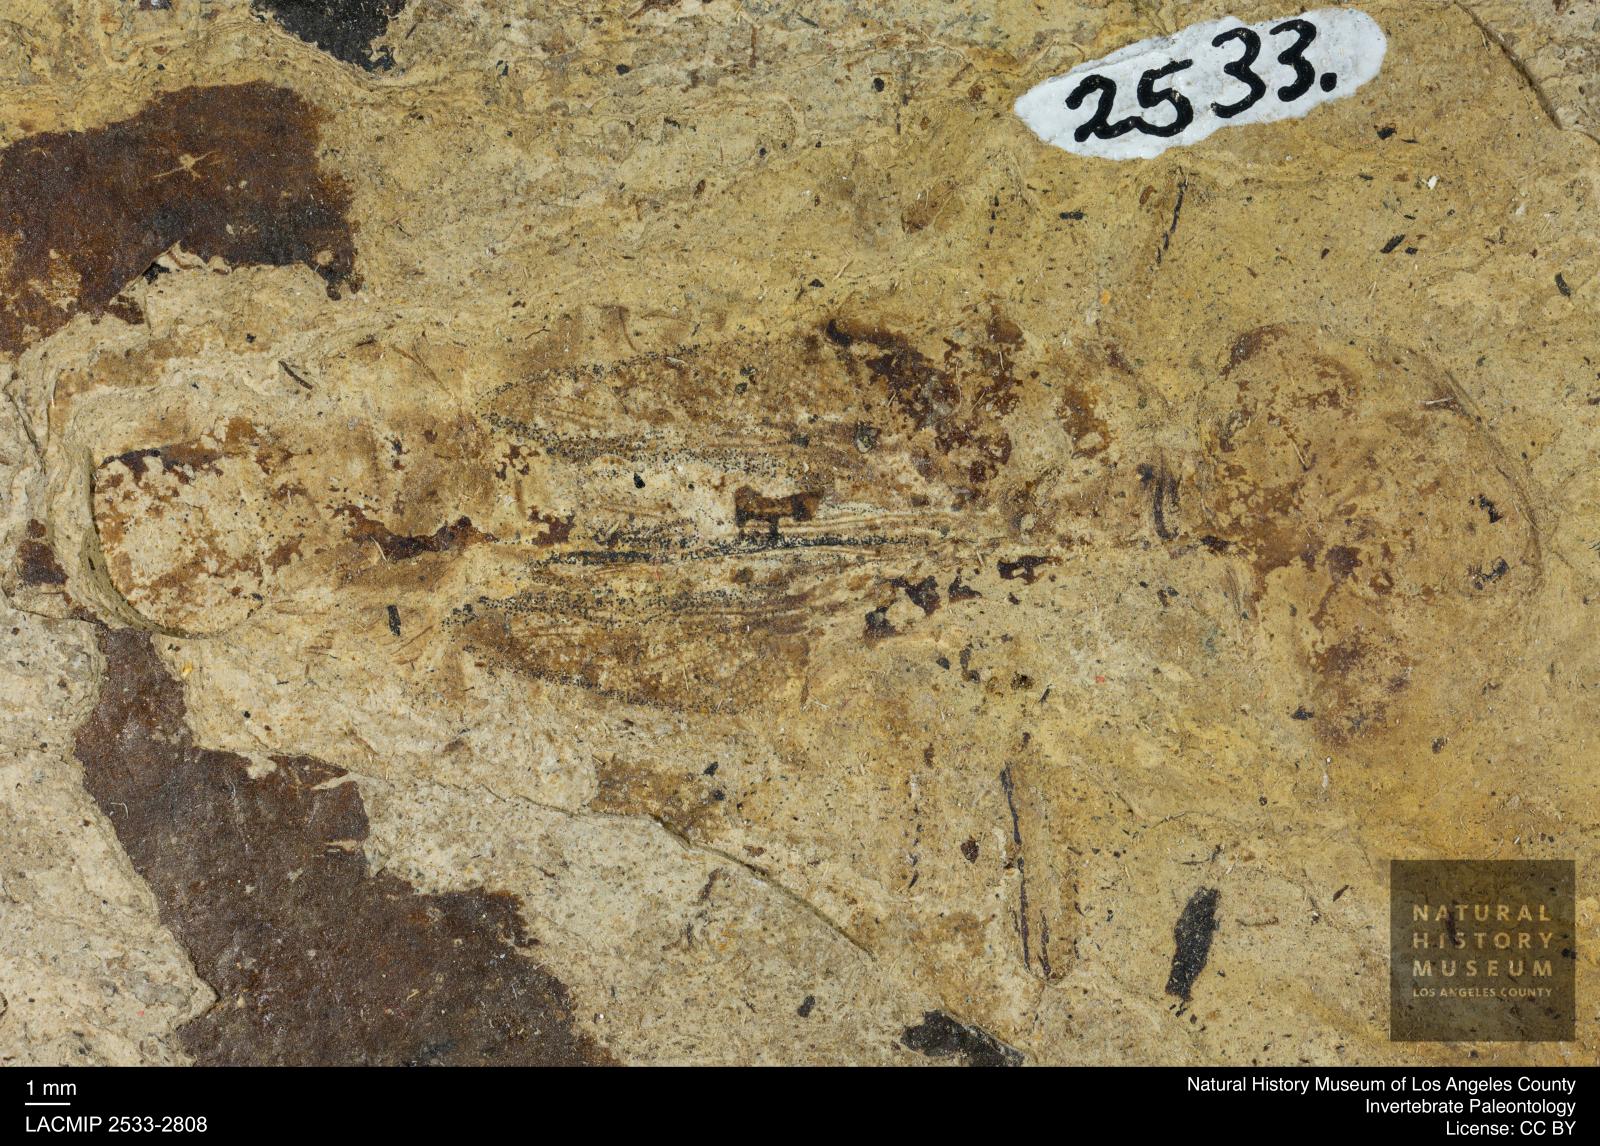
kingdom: Animalia
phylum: Arthropoda
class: Insecta
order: Ephemeroptera
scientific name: Ephemeroptera
